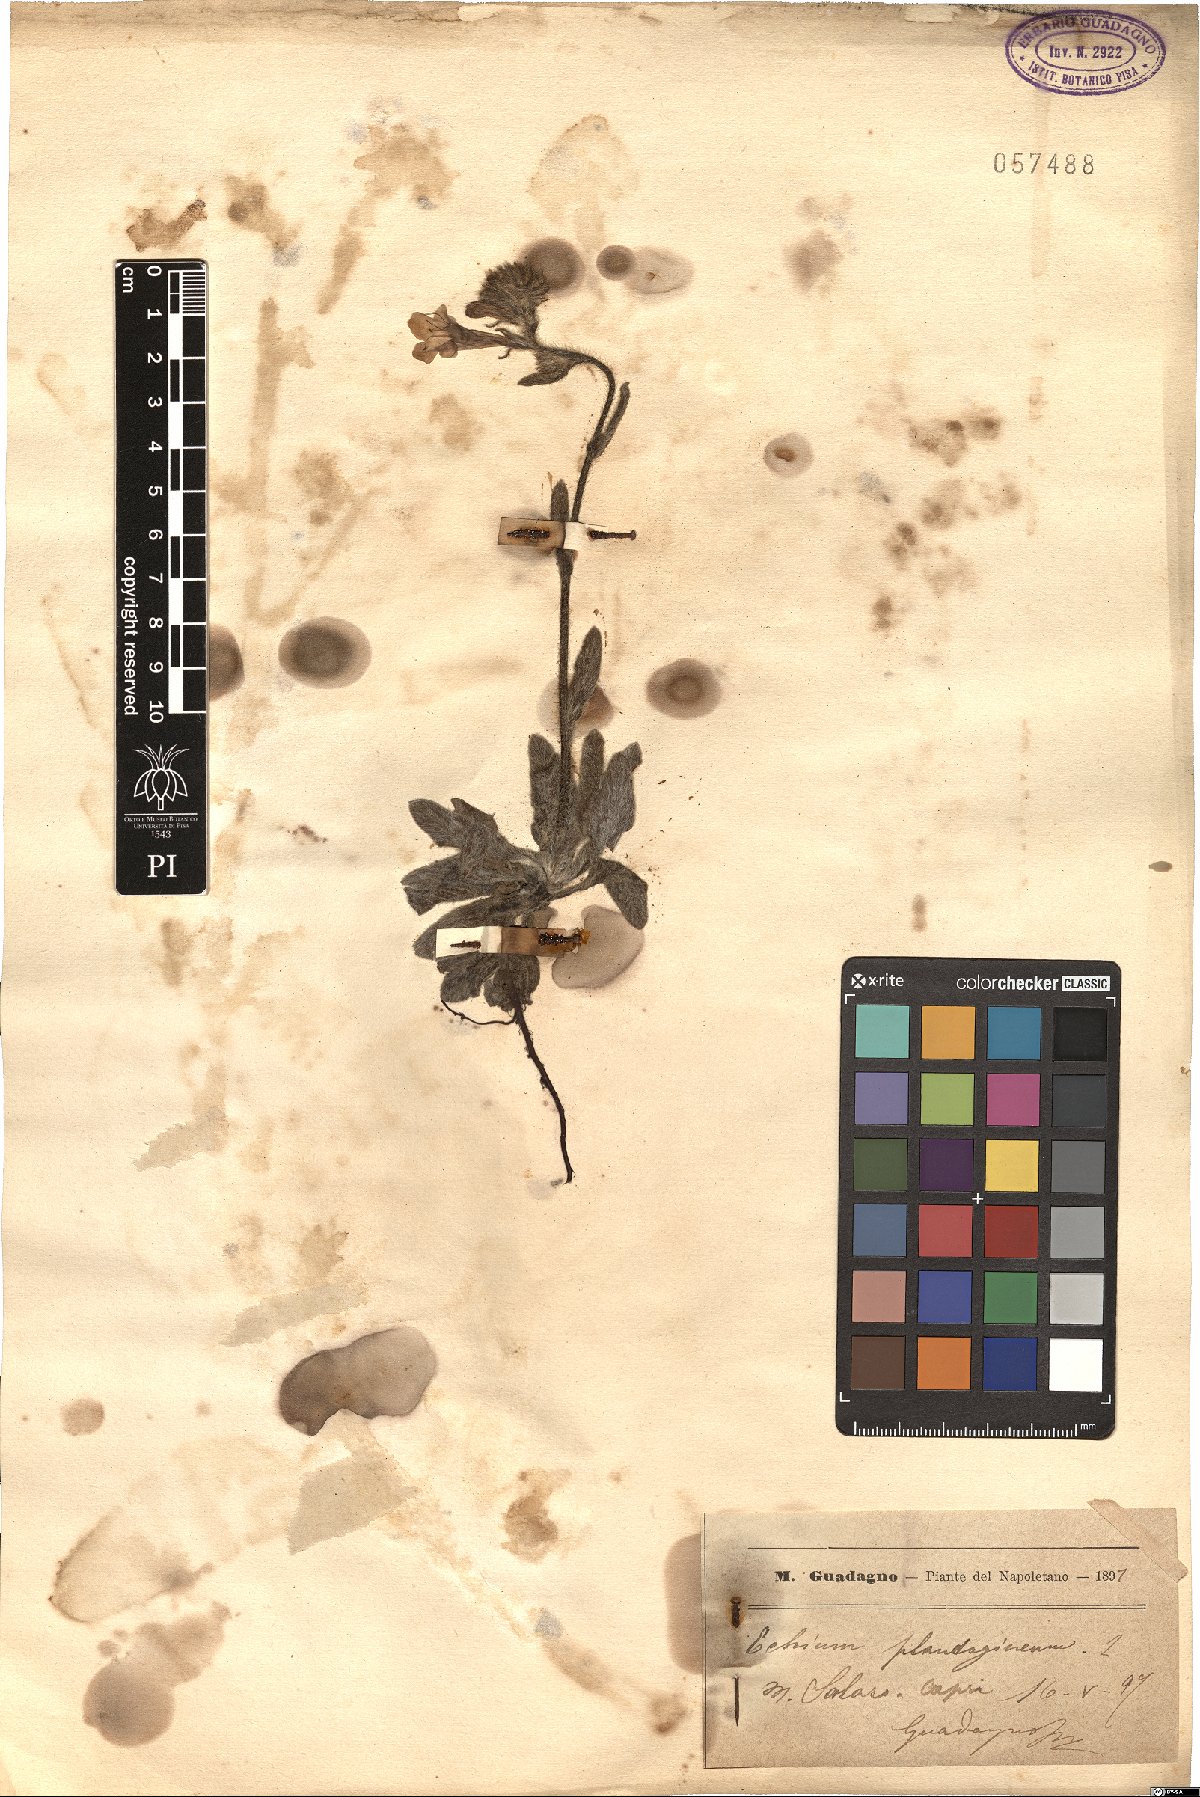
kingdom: Plantae
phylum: Tracheophyta
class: Magnoliopsida
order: Boraginales
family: Boraginaceae
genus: Echium
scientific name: Echium plantagineum
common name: Purple viper's-bugloss
